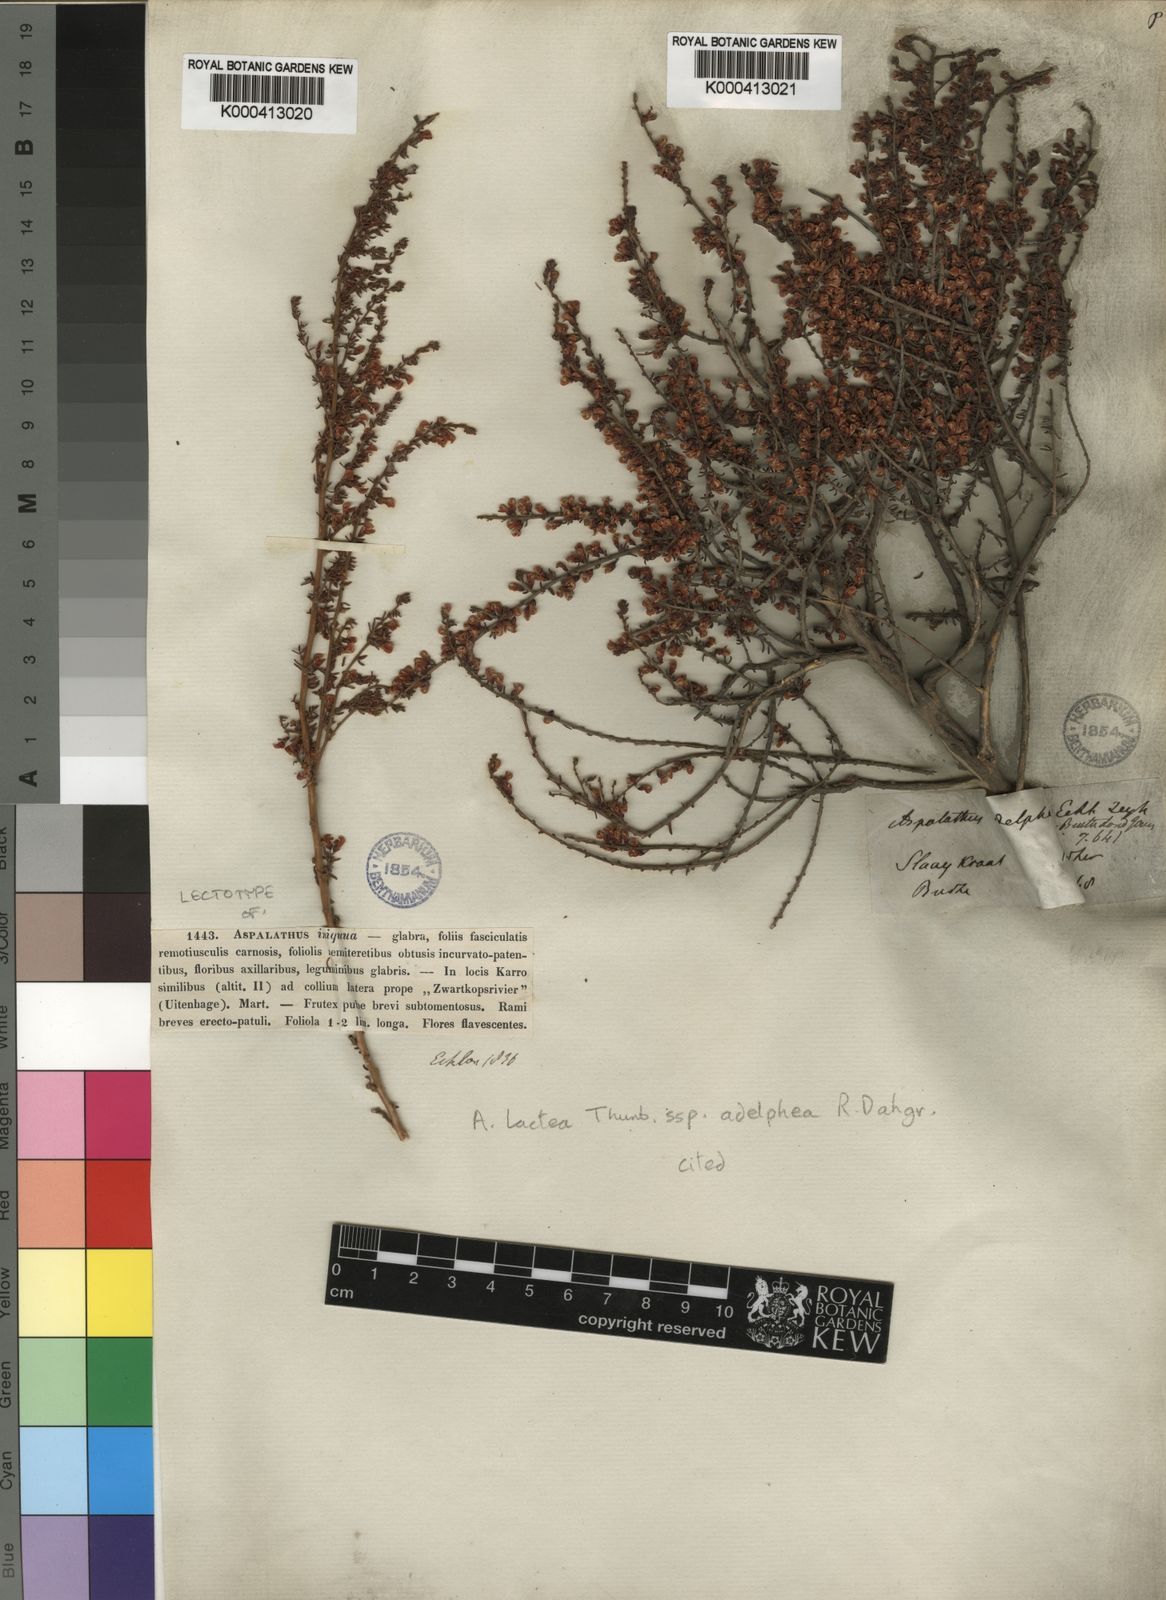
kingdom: Plantae
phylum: Tracheophyta
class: Magnoliopsida
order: Fabales
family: Fabaceae
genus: Aspalathus
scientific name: Aspalathus lactea
